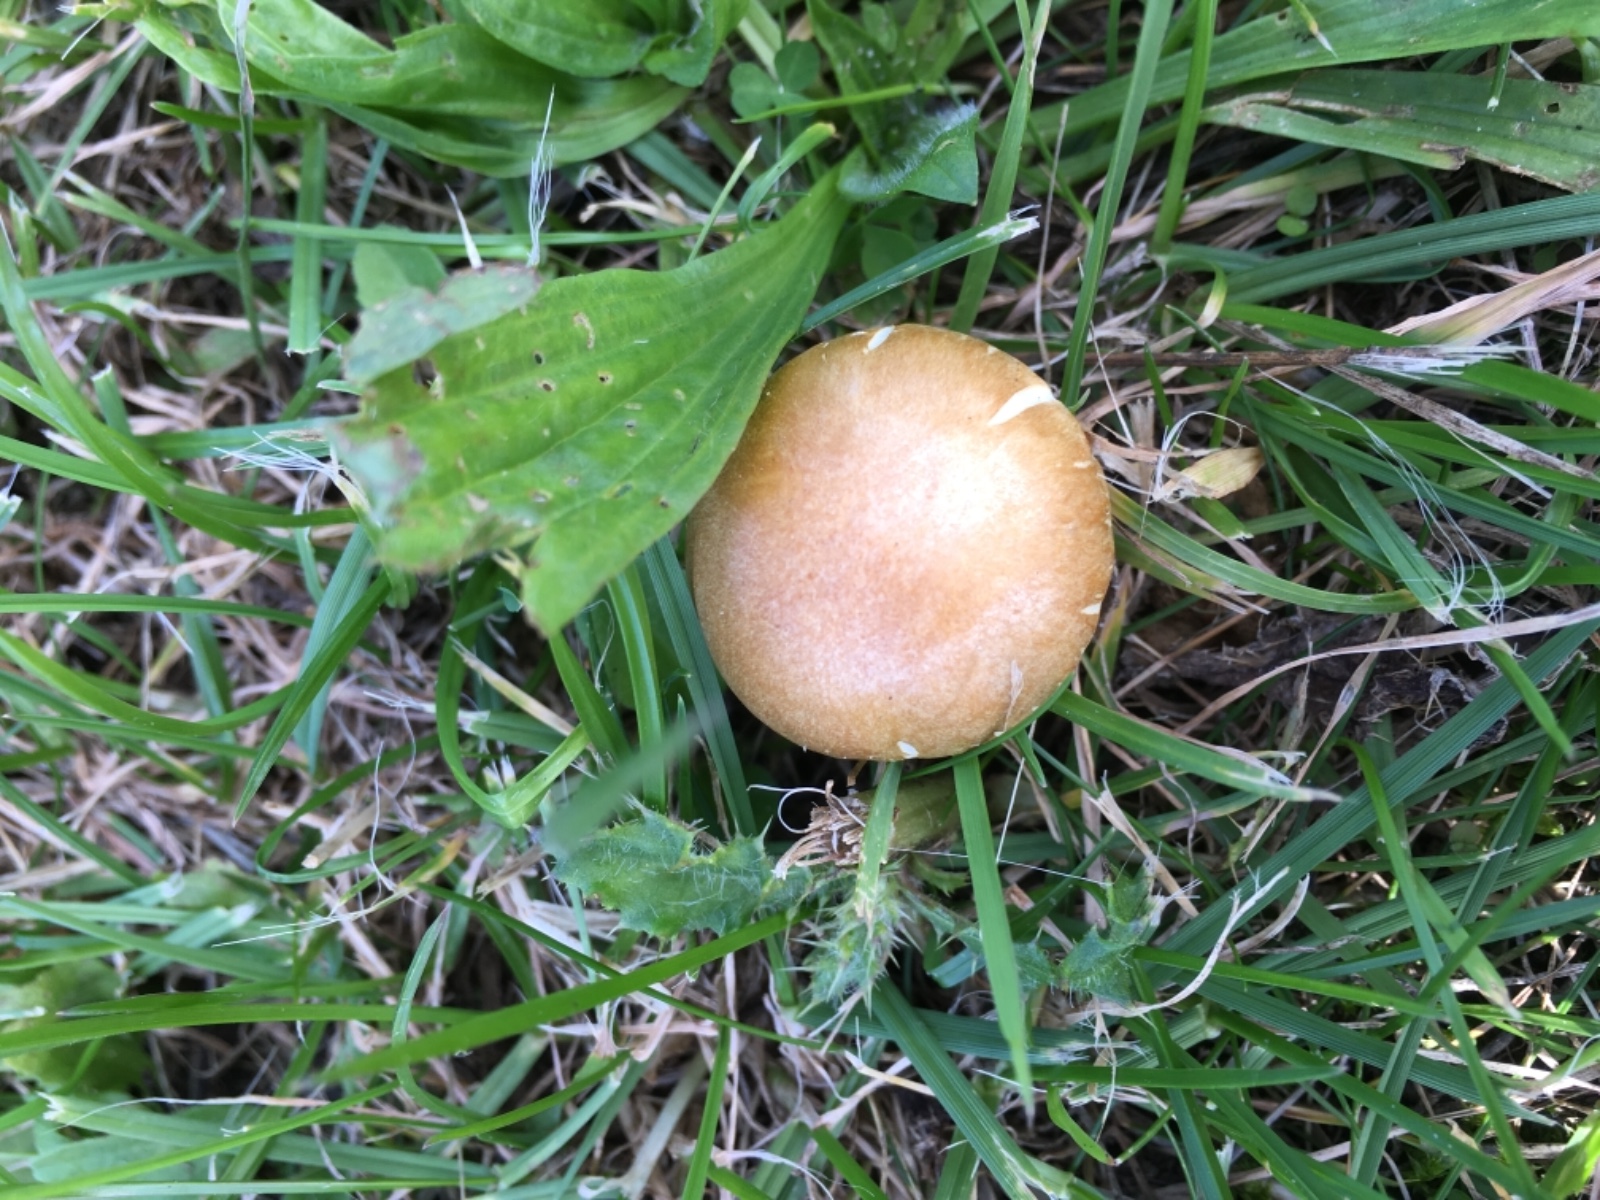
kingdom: Fungi
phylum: Basidiomycota
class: Agaricomycetes
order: Agaricales
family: Hymenogastraceae
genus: Psilocybe
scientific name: Psilocybe coronilla
